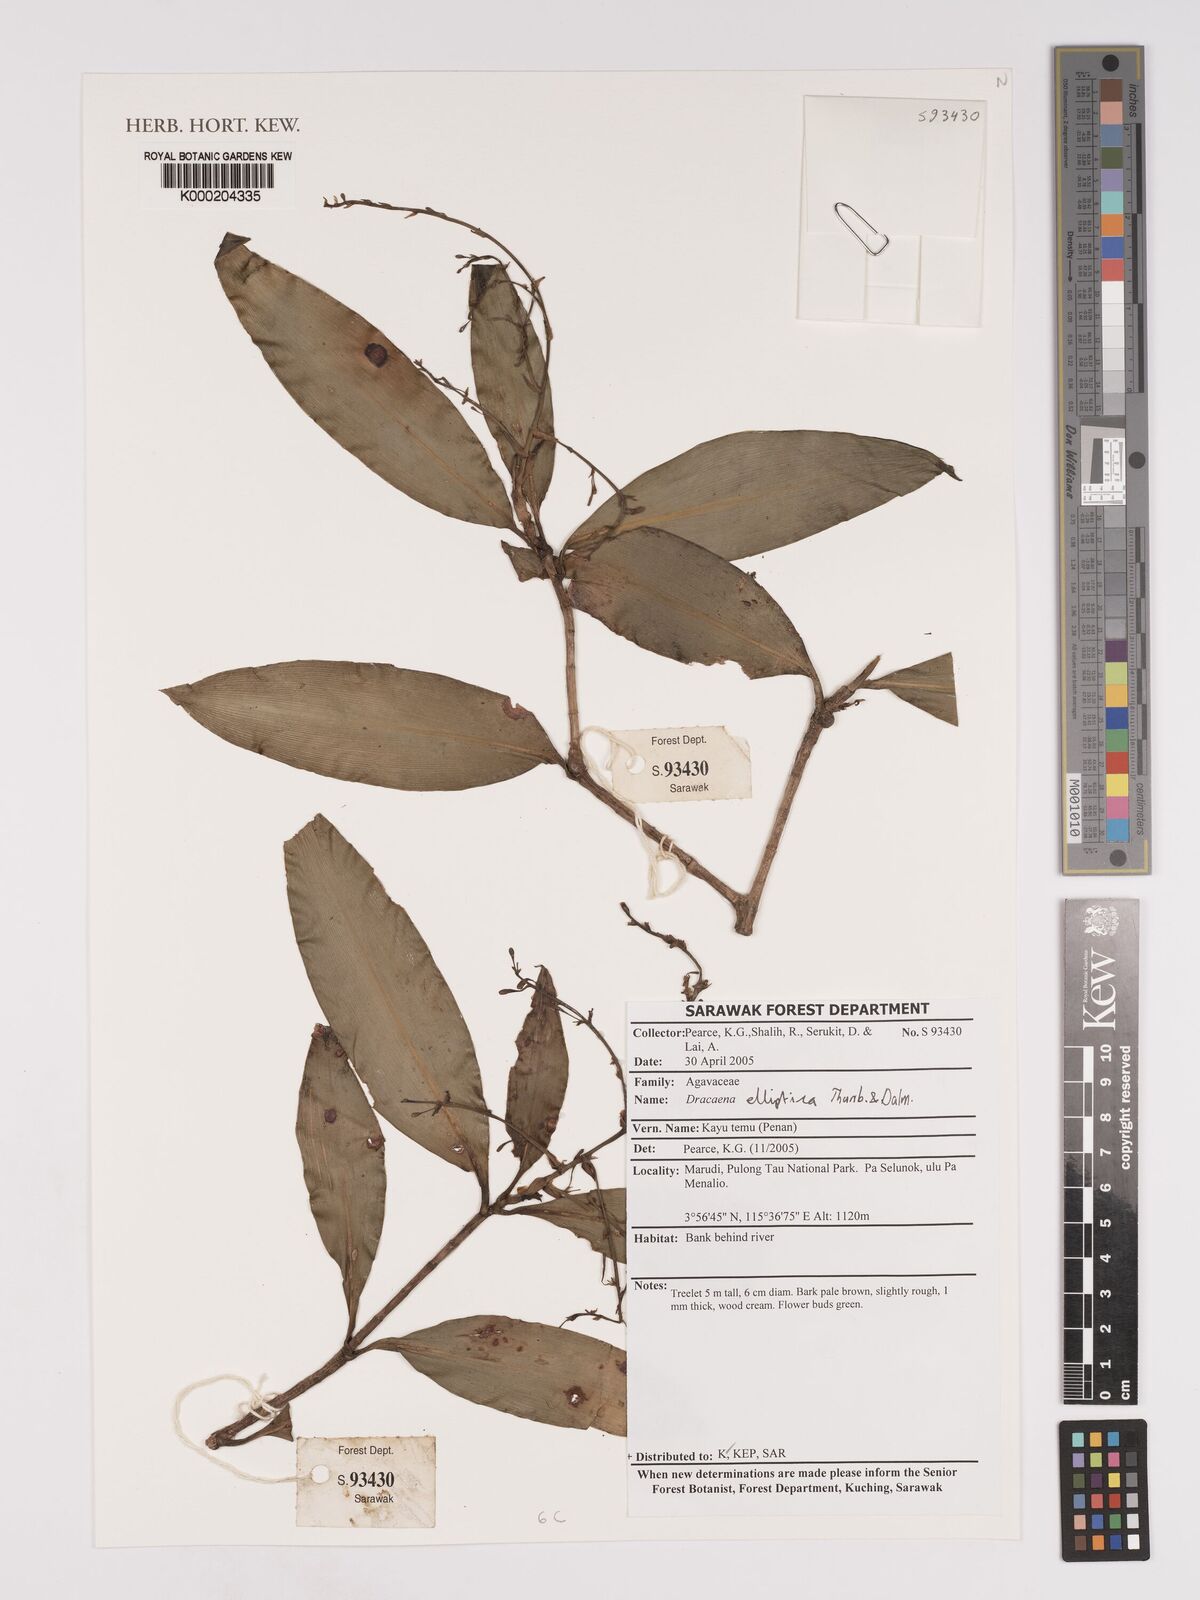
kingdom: Plantae
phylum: Tracheophyta
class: Liliopsida
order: Asparagales
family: Asparagaceae
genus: Dracaena
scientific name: Dracaena elliptica
